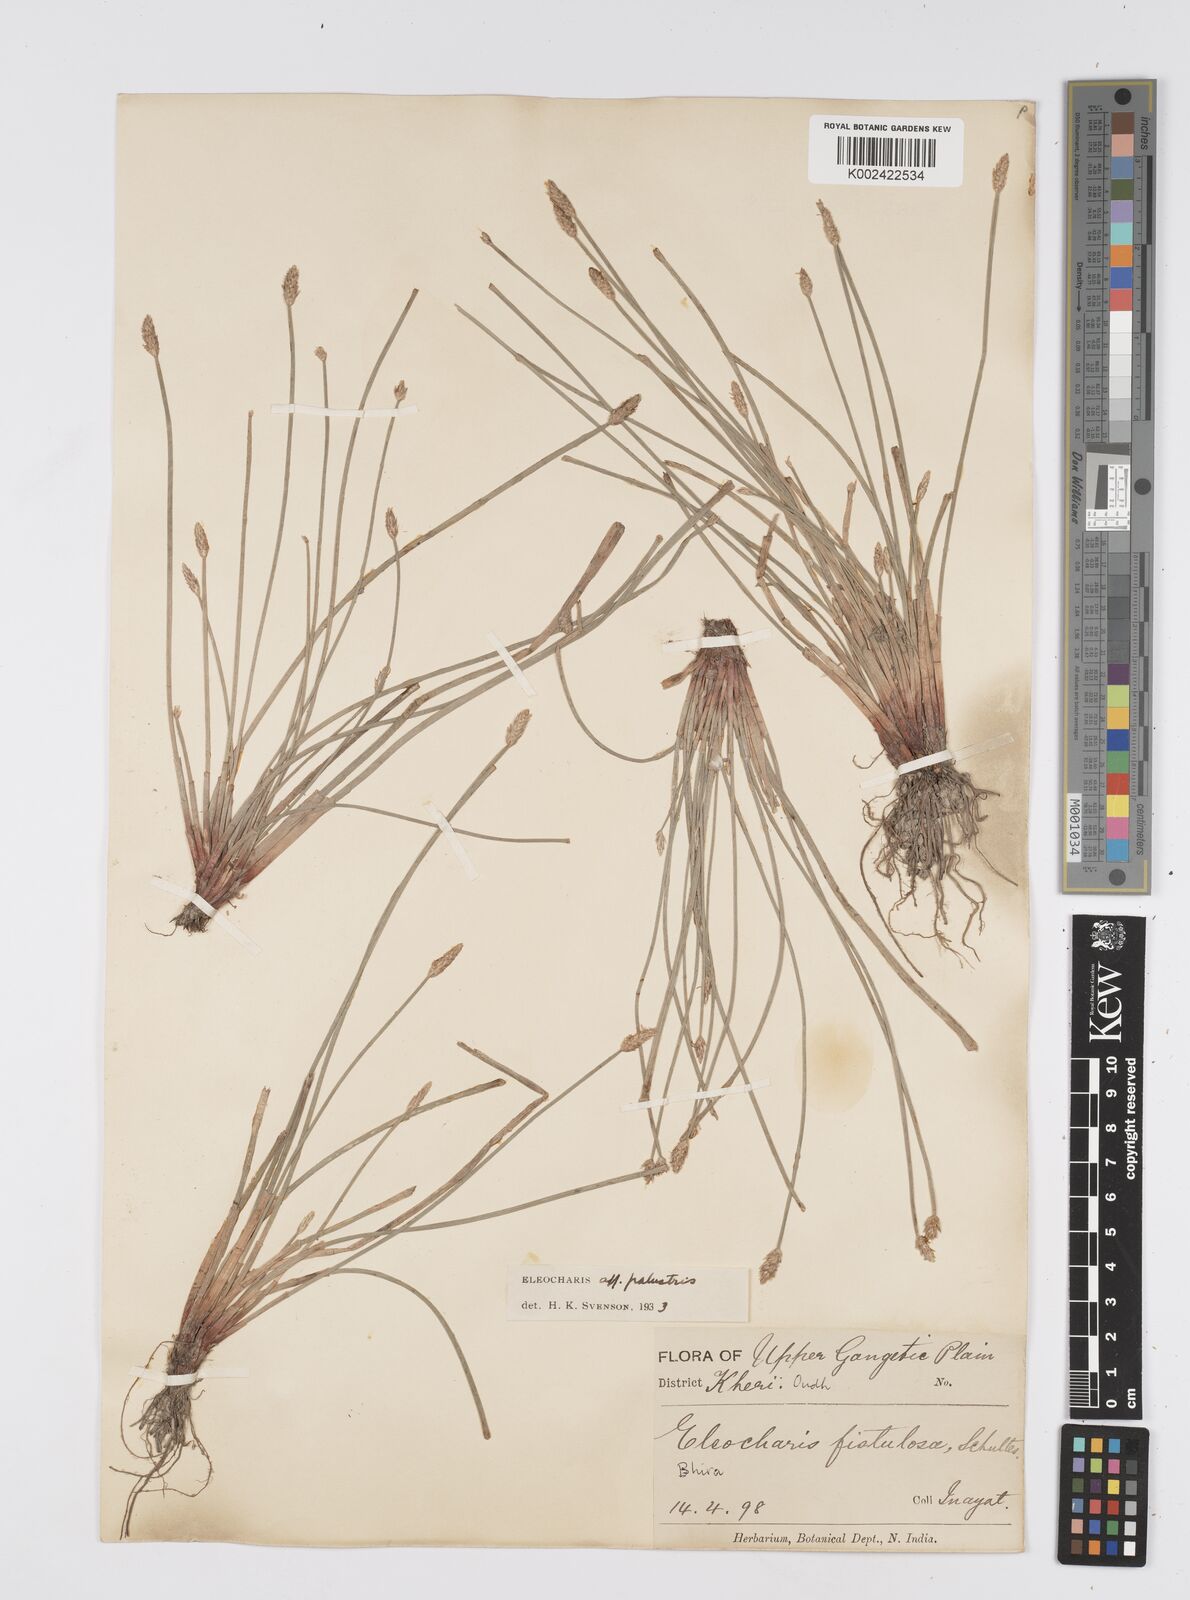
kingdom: Plantae
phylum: Tracheophyta
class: Liliopsida
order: Poales
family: Cyperaceae
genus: Eleocharis
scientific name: Eleocharis palustris
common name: Common spike-rush
